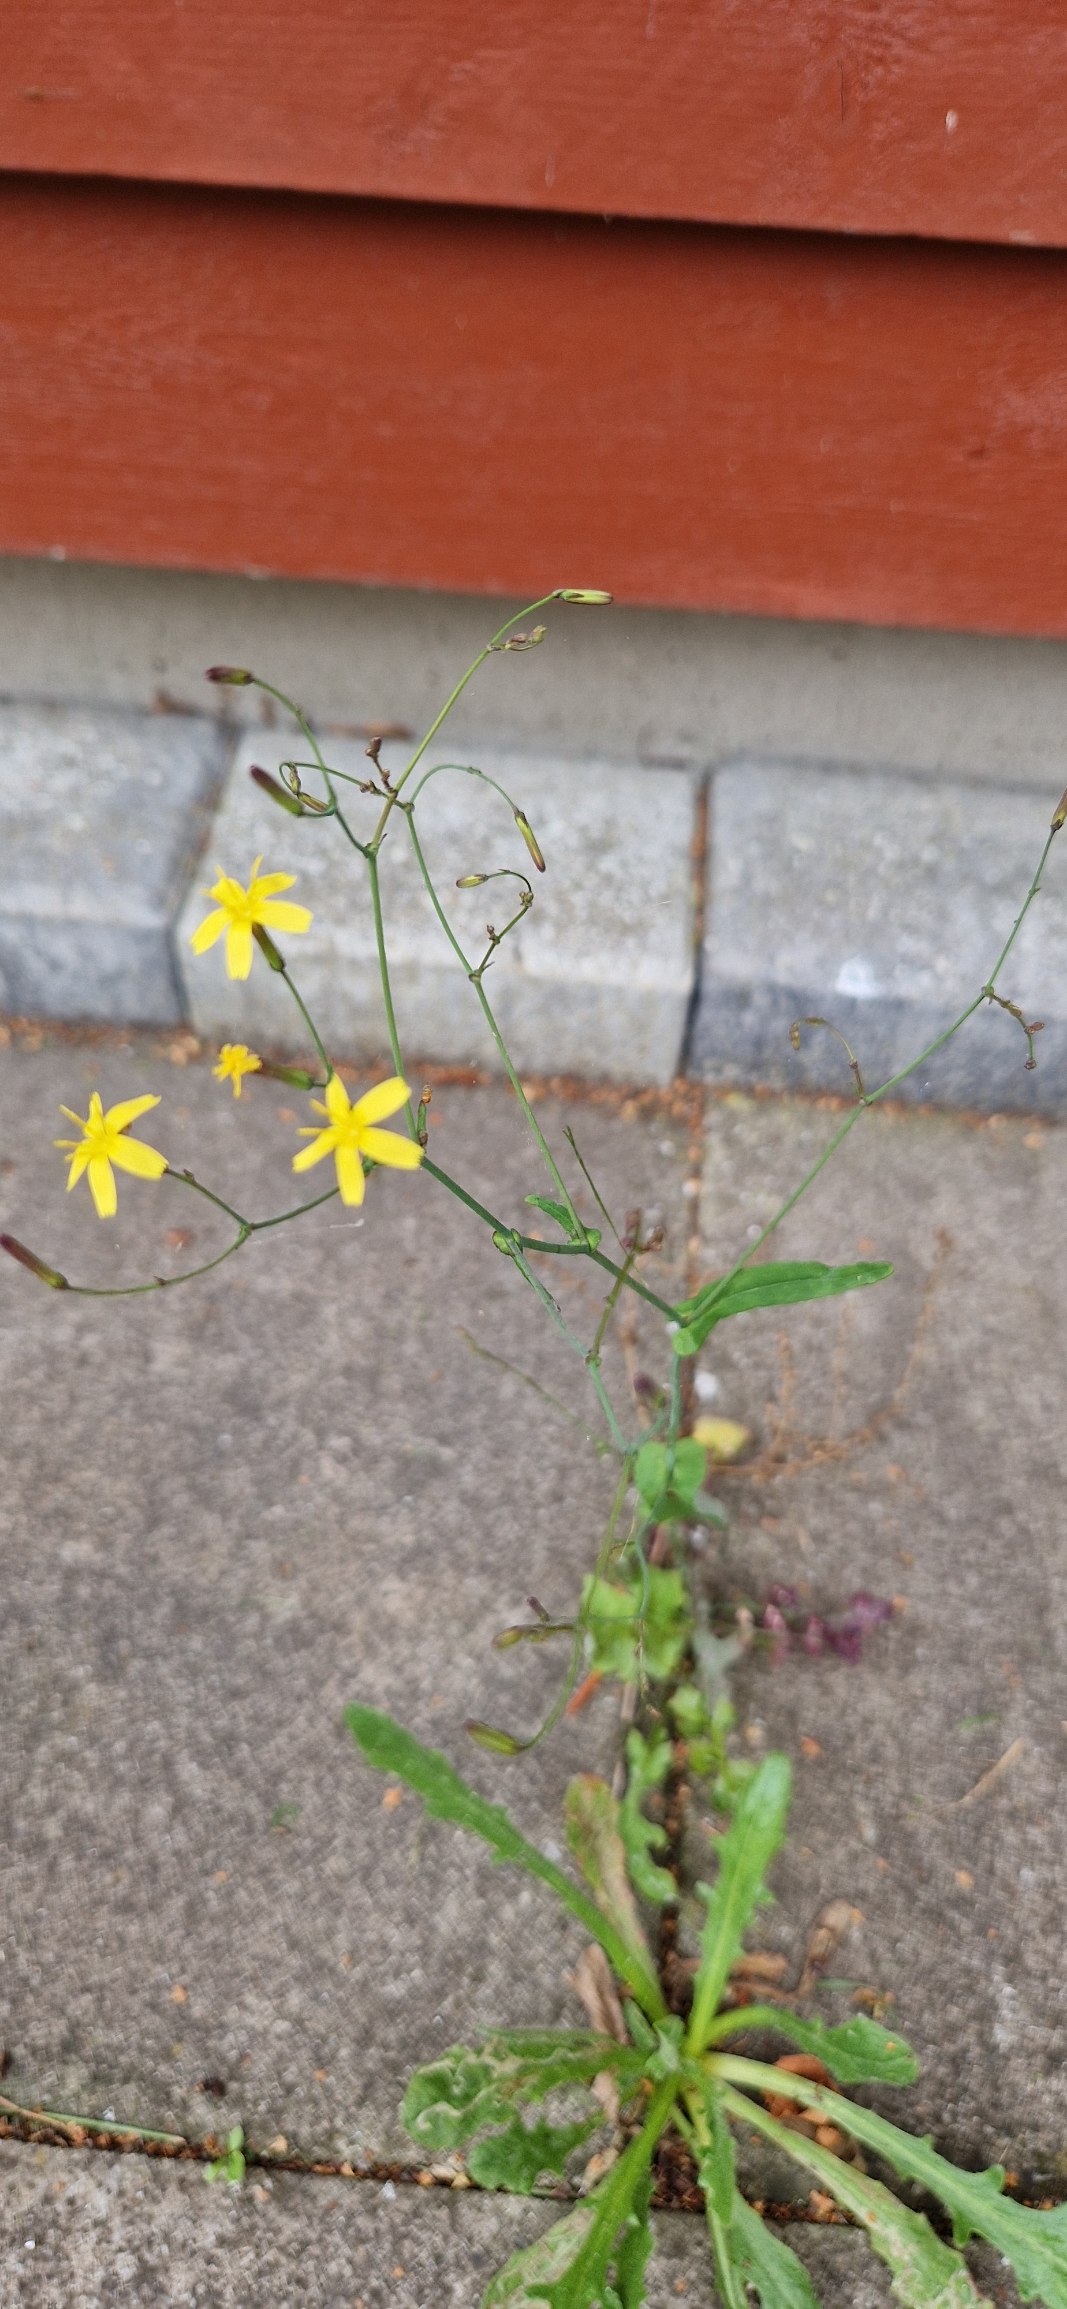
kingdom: Plantae
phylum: Tracheophyta
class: Magnoliopsida
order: Asterales
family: Asteraceae
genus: Mycelis
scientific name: Mycelis muralis
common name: Skov-salat
